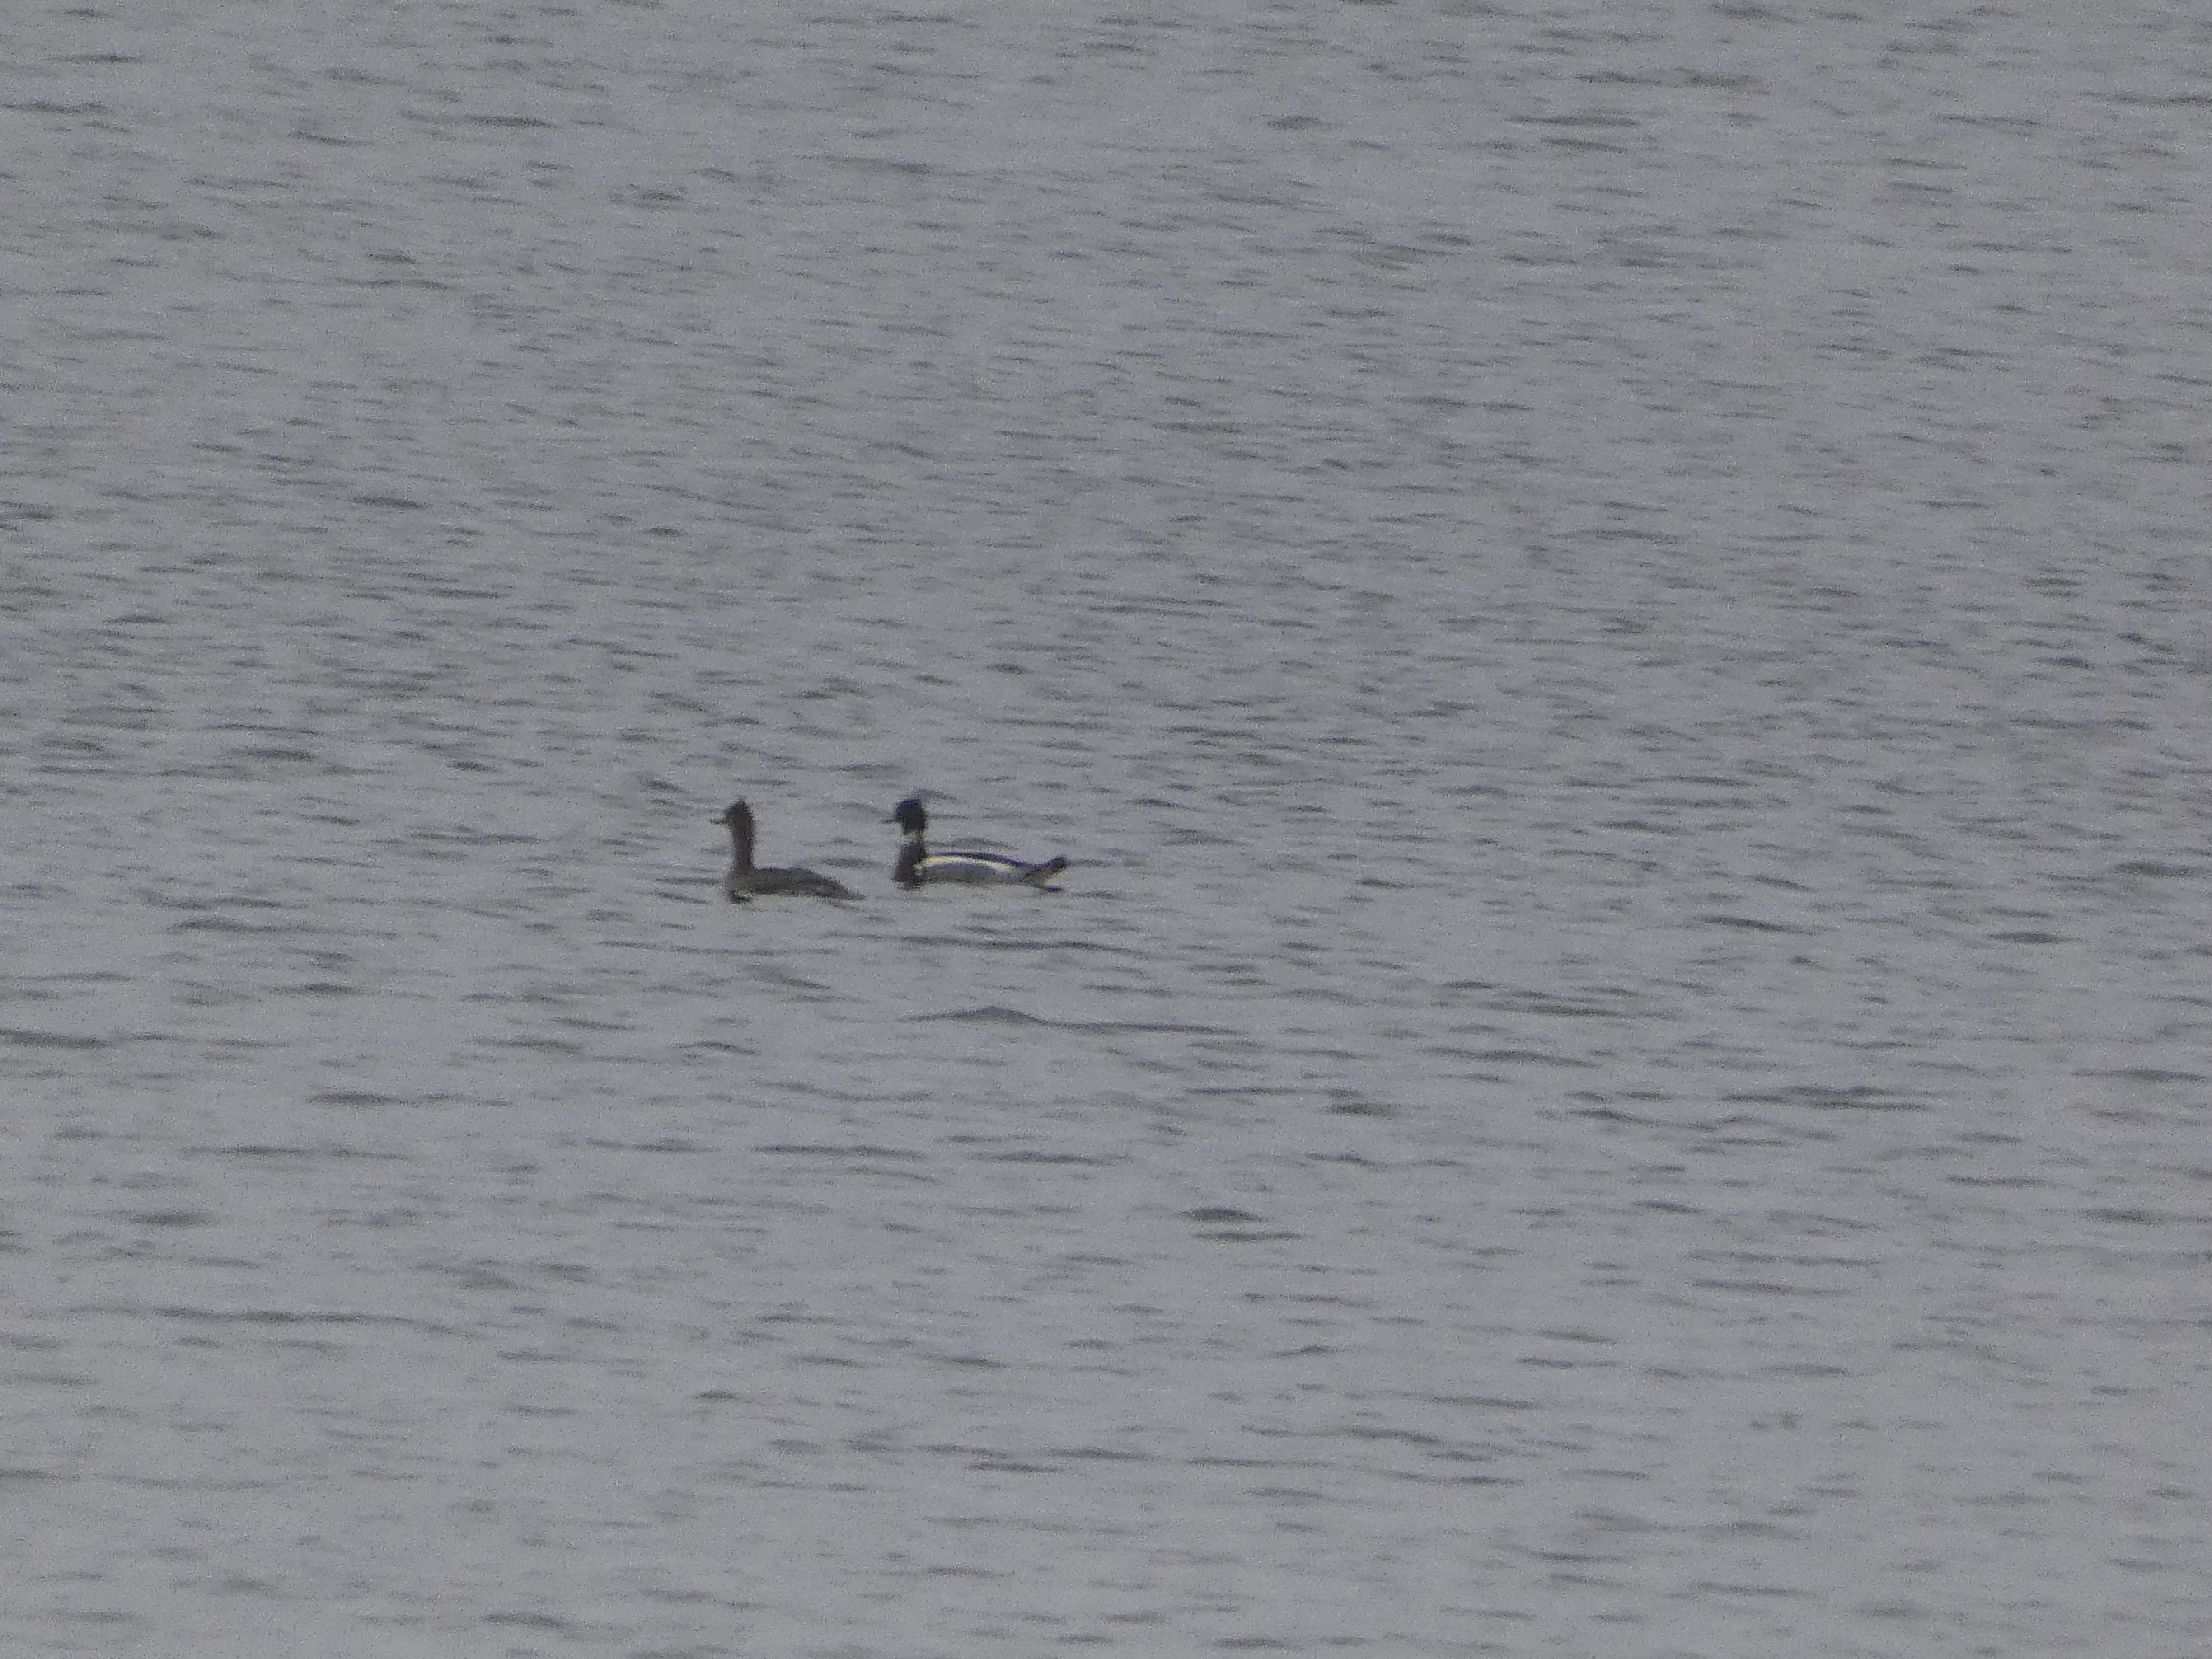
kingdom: Animalia
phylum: Chordata
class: Aves
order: Anseriformes
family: Anatidae
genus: Mergus
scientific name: Mergus serrator
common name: Toppet skallesluger
